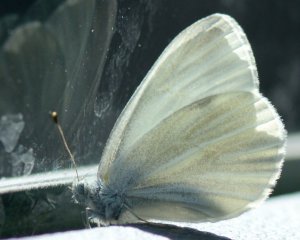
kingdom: Animalia
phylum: Arthropoda
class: Insecta
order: Lepidoptera
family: Pieridae
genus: Pieris
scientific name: Pieris virginiensis
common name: West Virginia White
